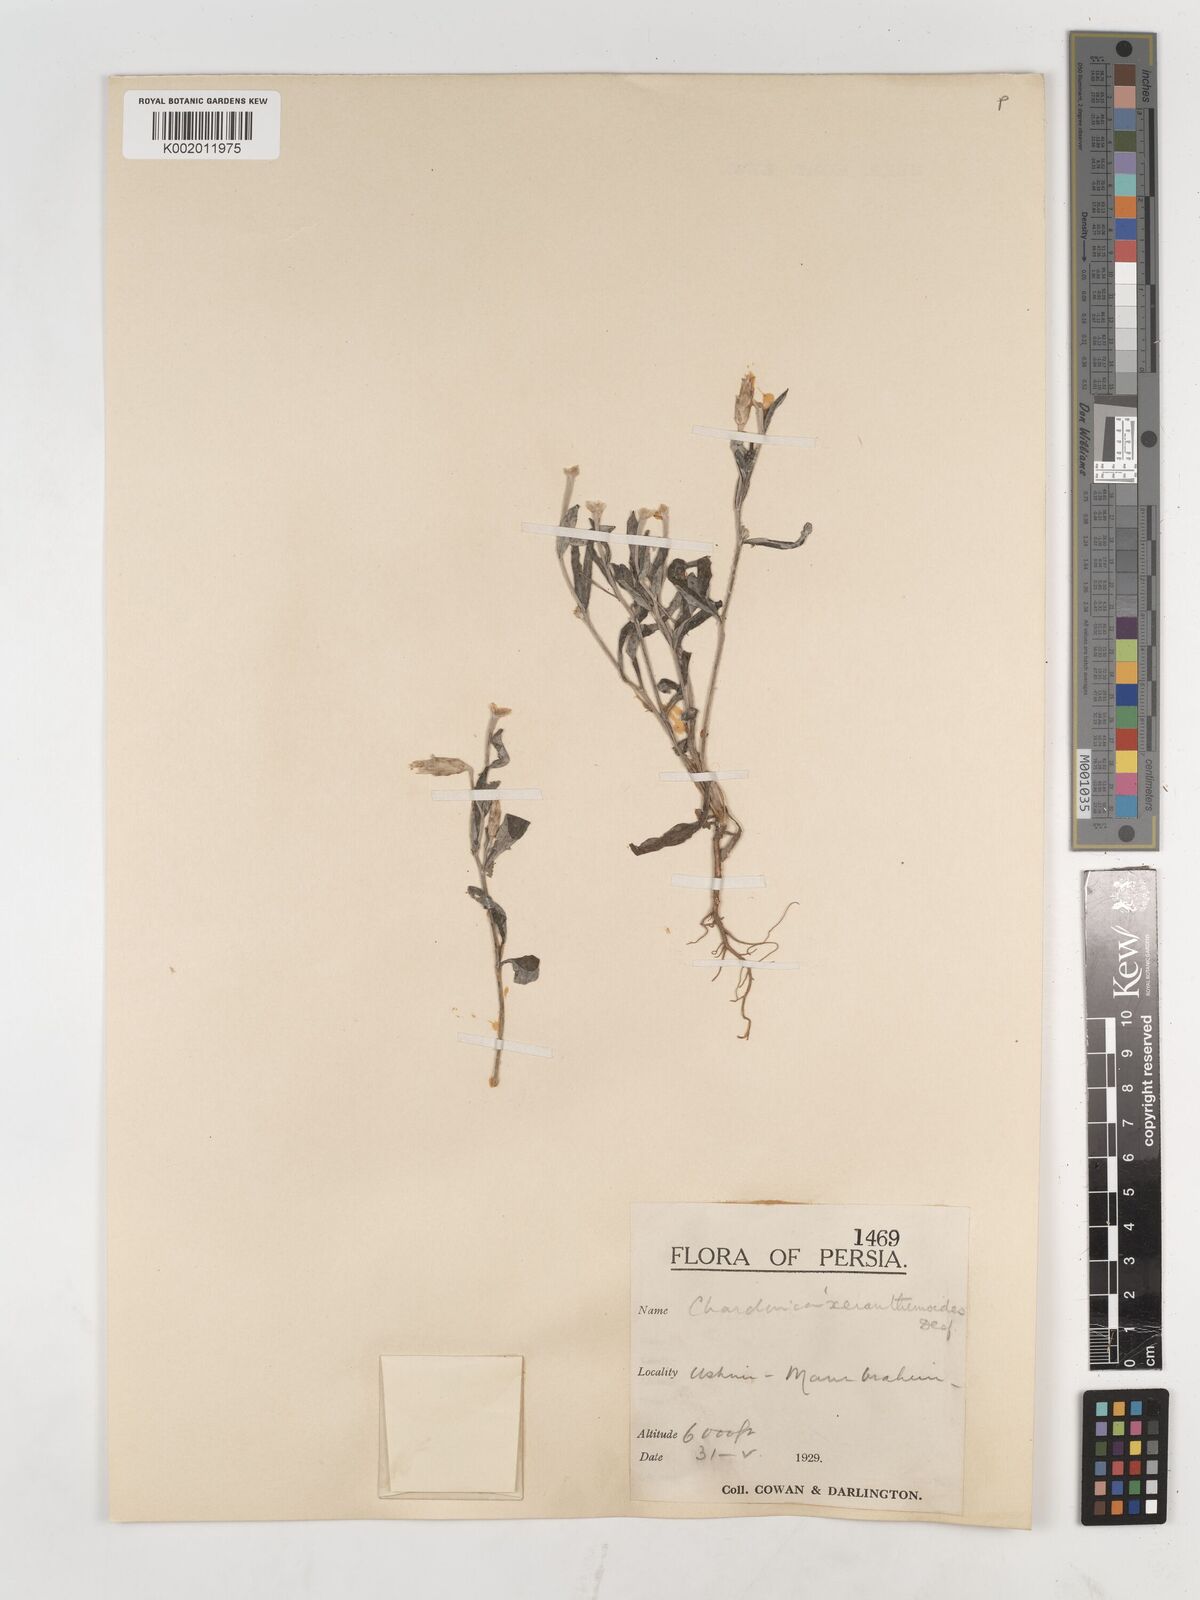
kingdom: Plantae
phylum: Tracheophyta
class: Magnoliopsida
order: Asterales
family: Asteraceae
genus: Chardinia
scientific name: Chardinia orientalis
